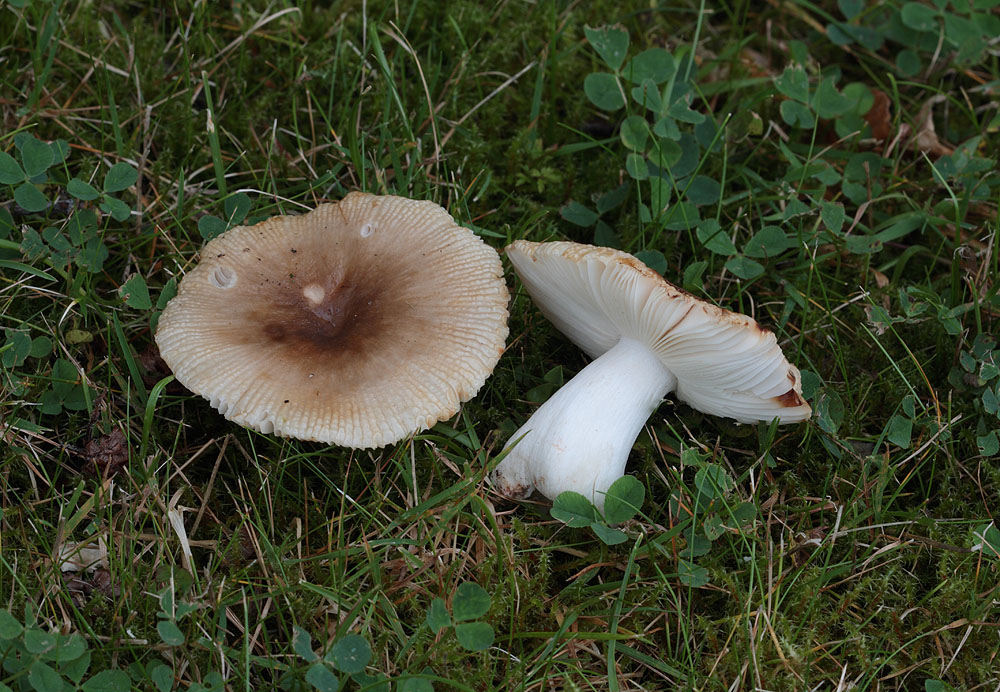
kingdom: Fungi
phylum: Basidiomycota
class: Agaricomycetes
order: Russulales
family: Russulaceae
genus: Russula
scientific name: Russula recondita
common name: mild kam-skørhat
